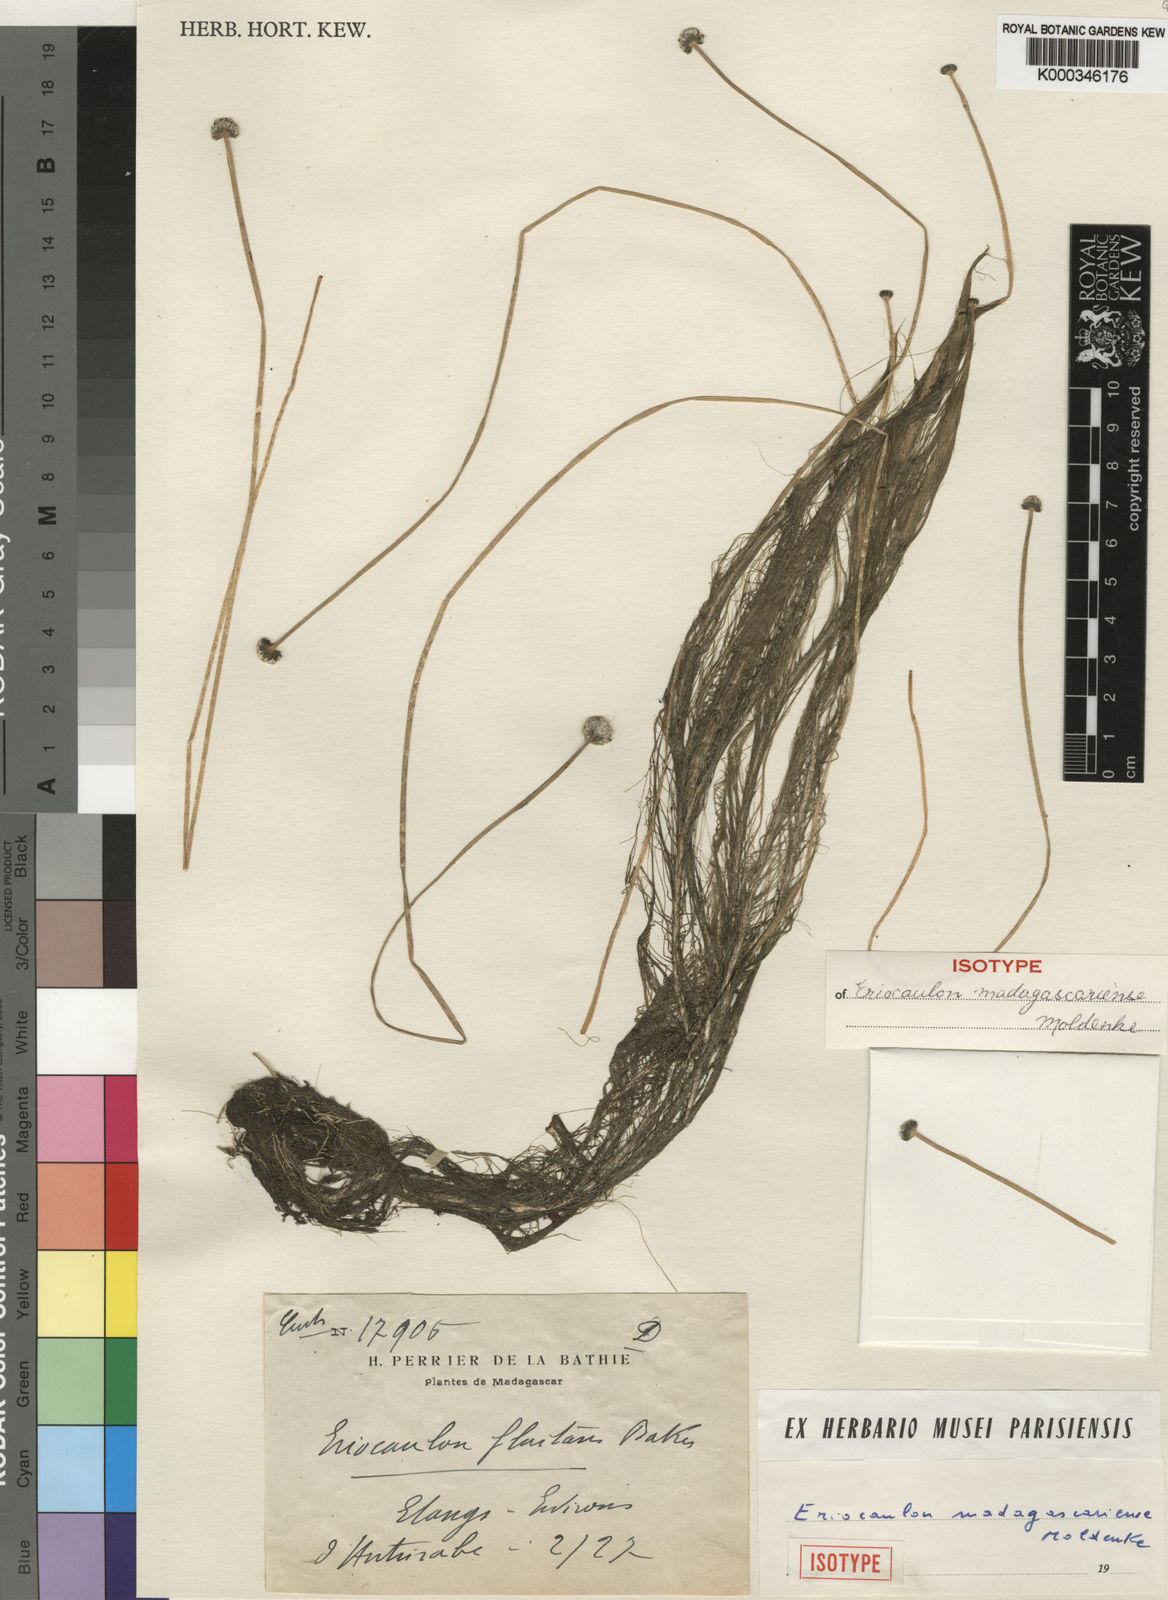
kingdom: Plantae
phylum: Tracheophyta
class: Liliopsida
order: Poales
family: Eriocaulaceae
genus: Eriocaulon
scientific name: Eriocaulon madagascariense
